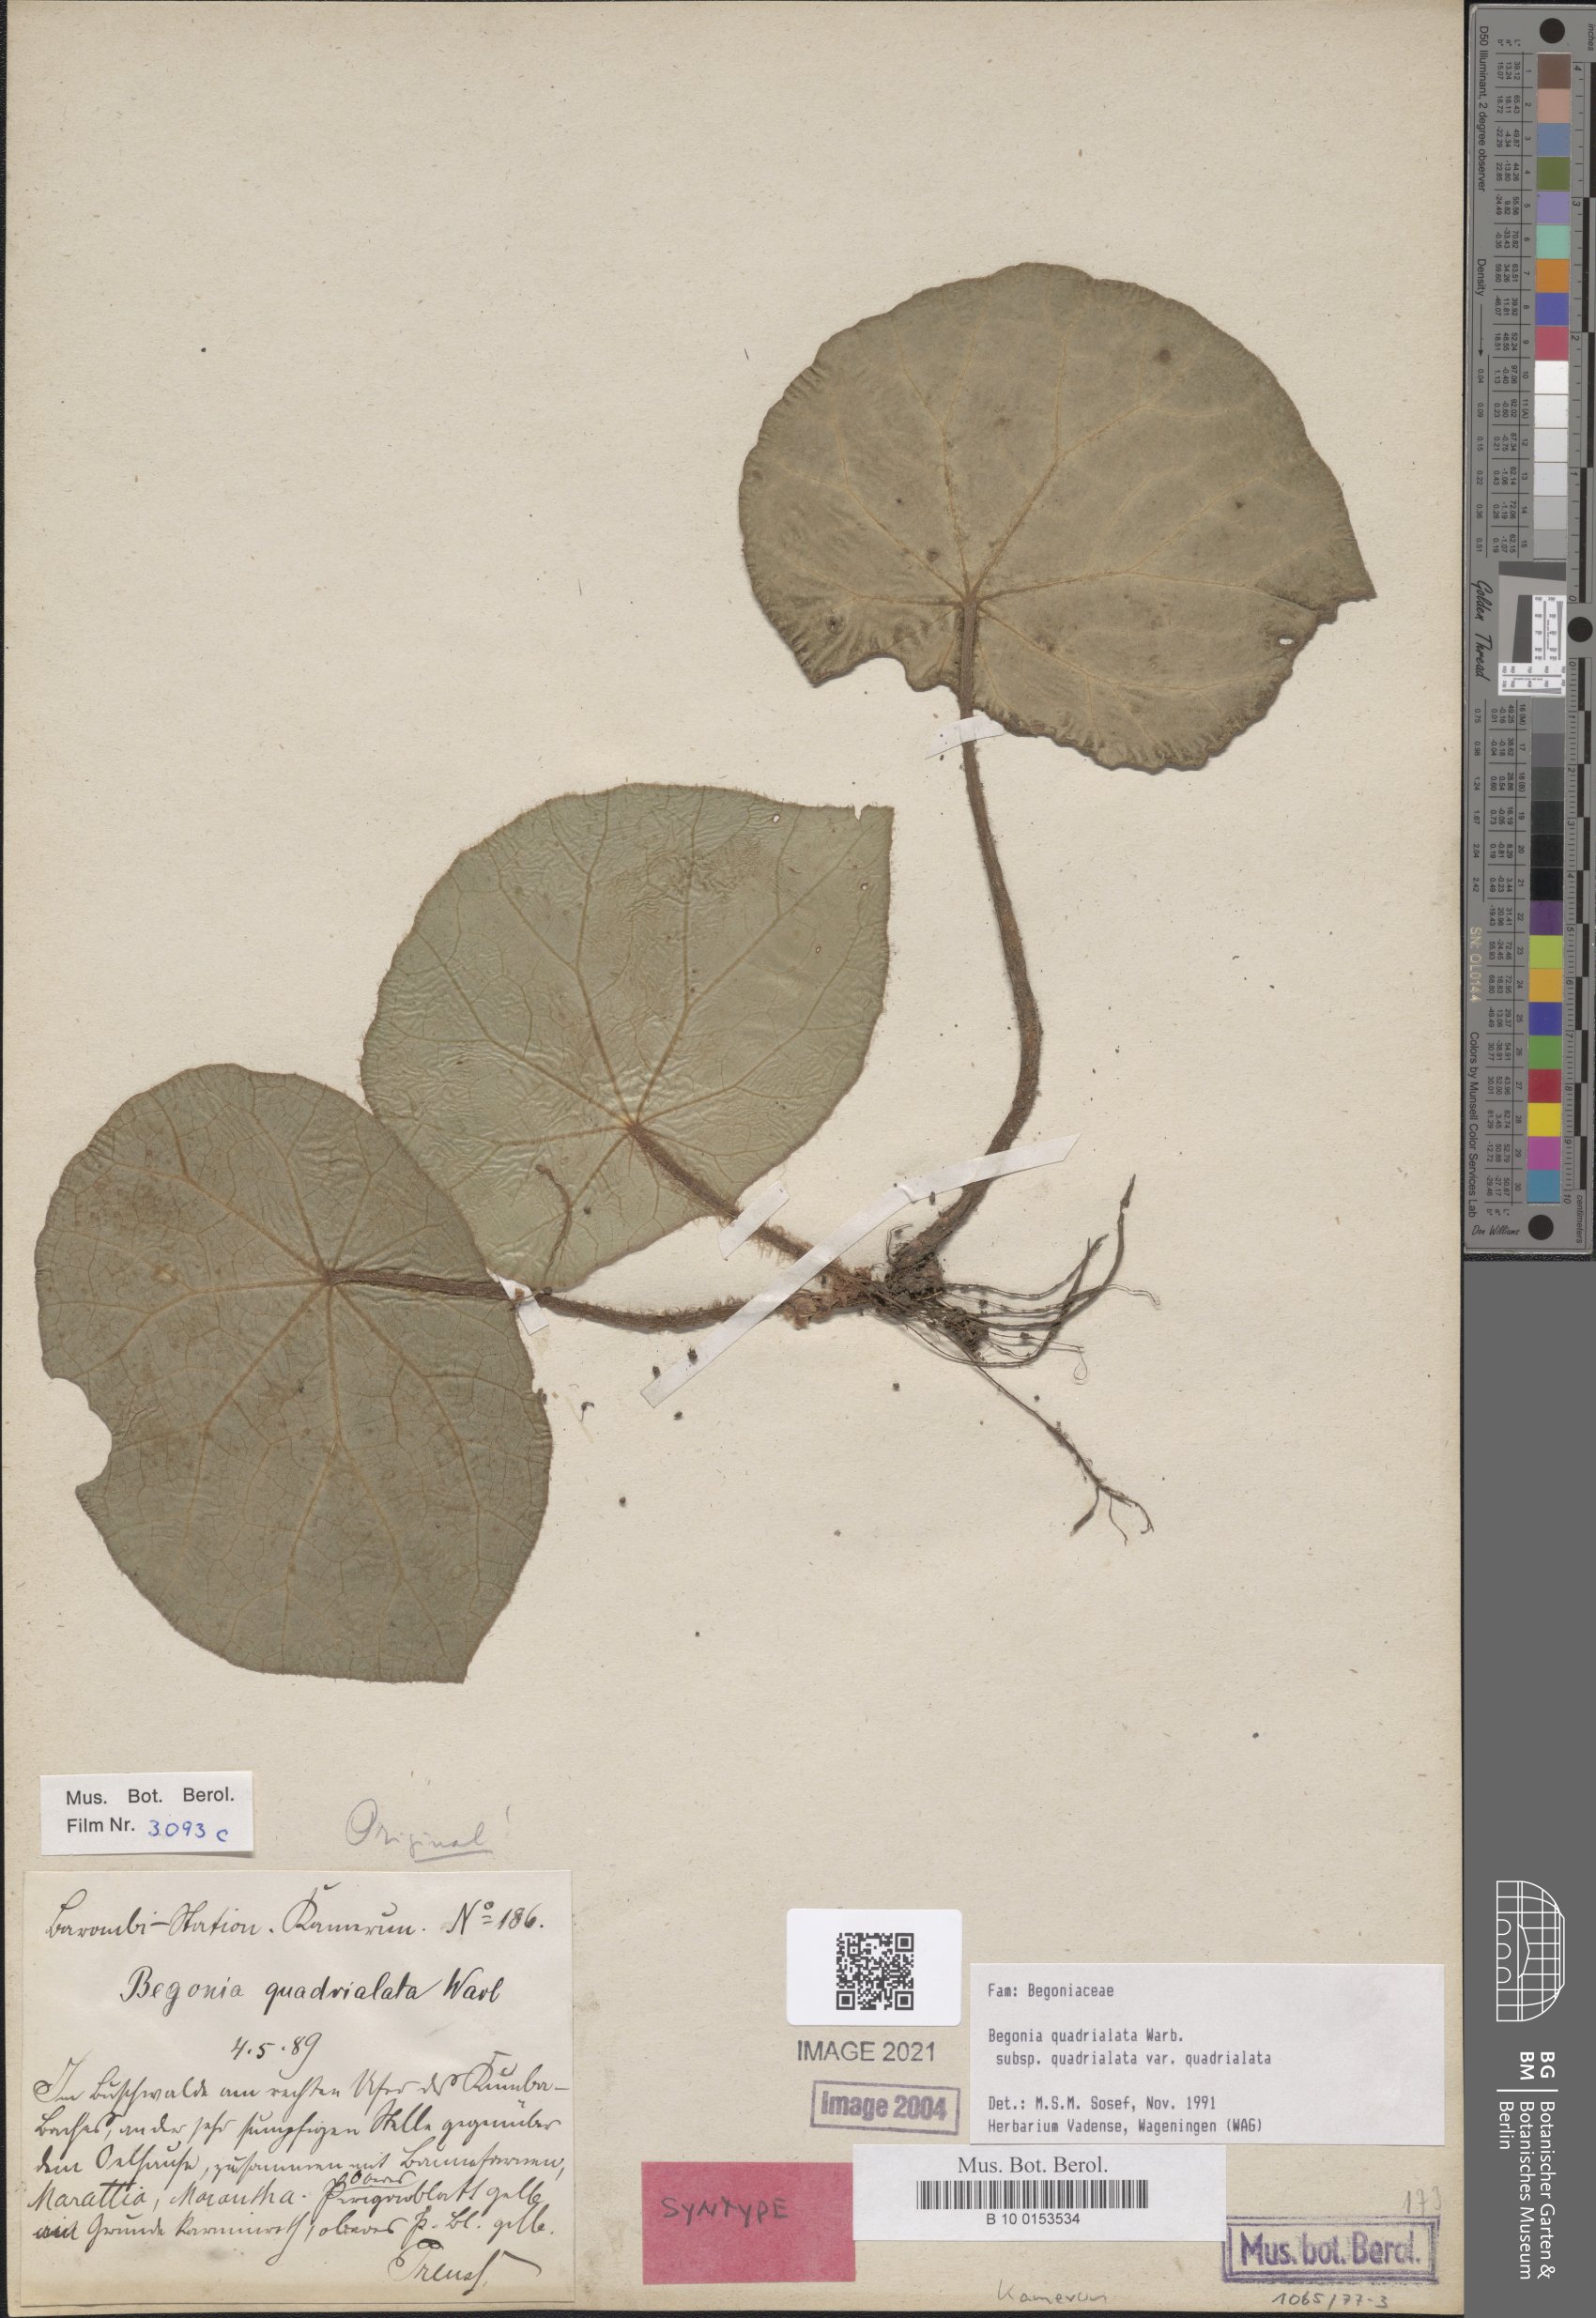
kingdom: Plantae
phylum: Tracheophyta
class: Magnoliopsida
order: Cucurbitales
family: Begoniaceae
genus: Begonia
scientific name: Begonia quadrialata
